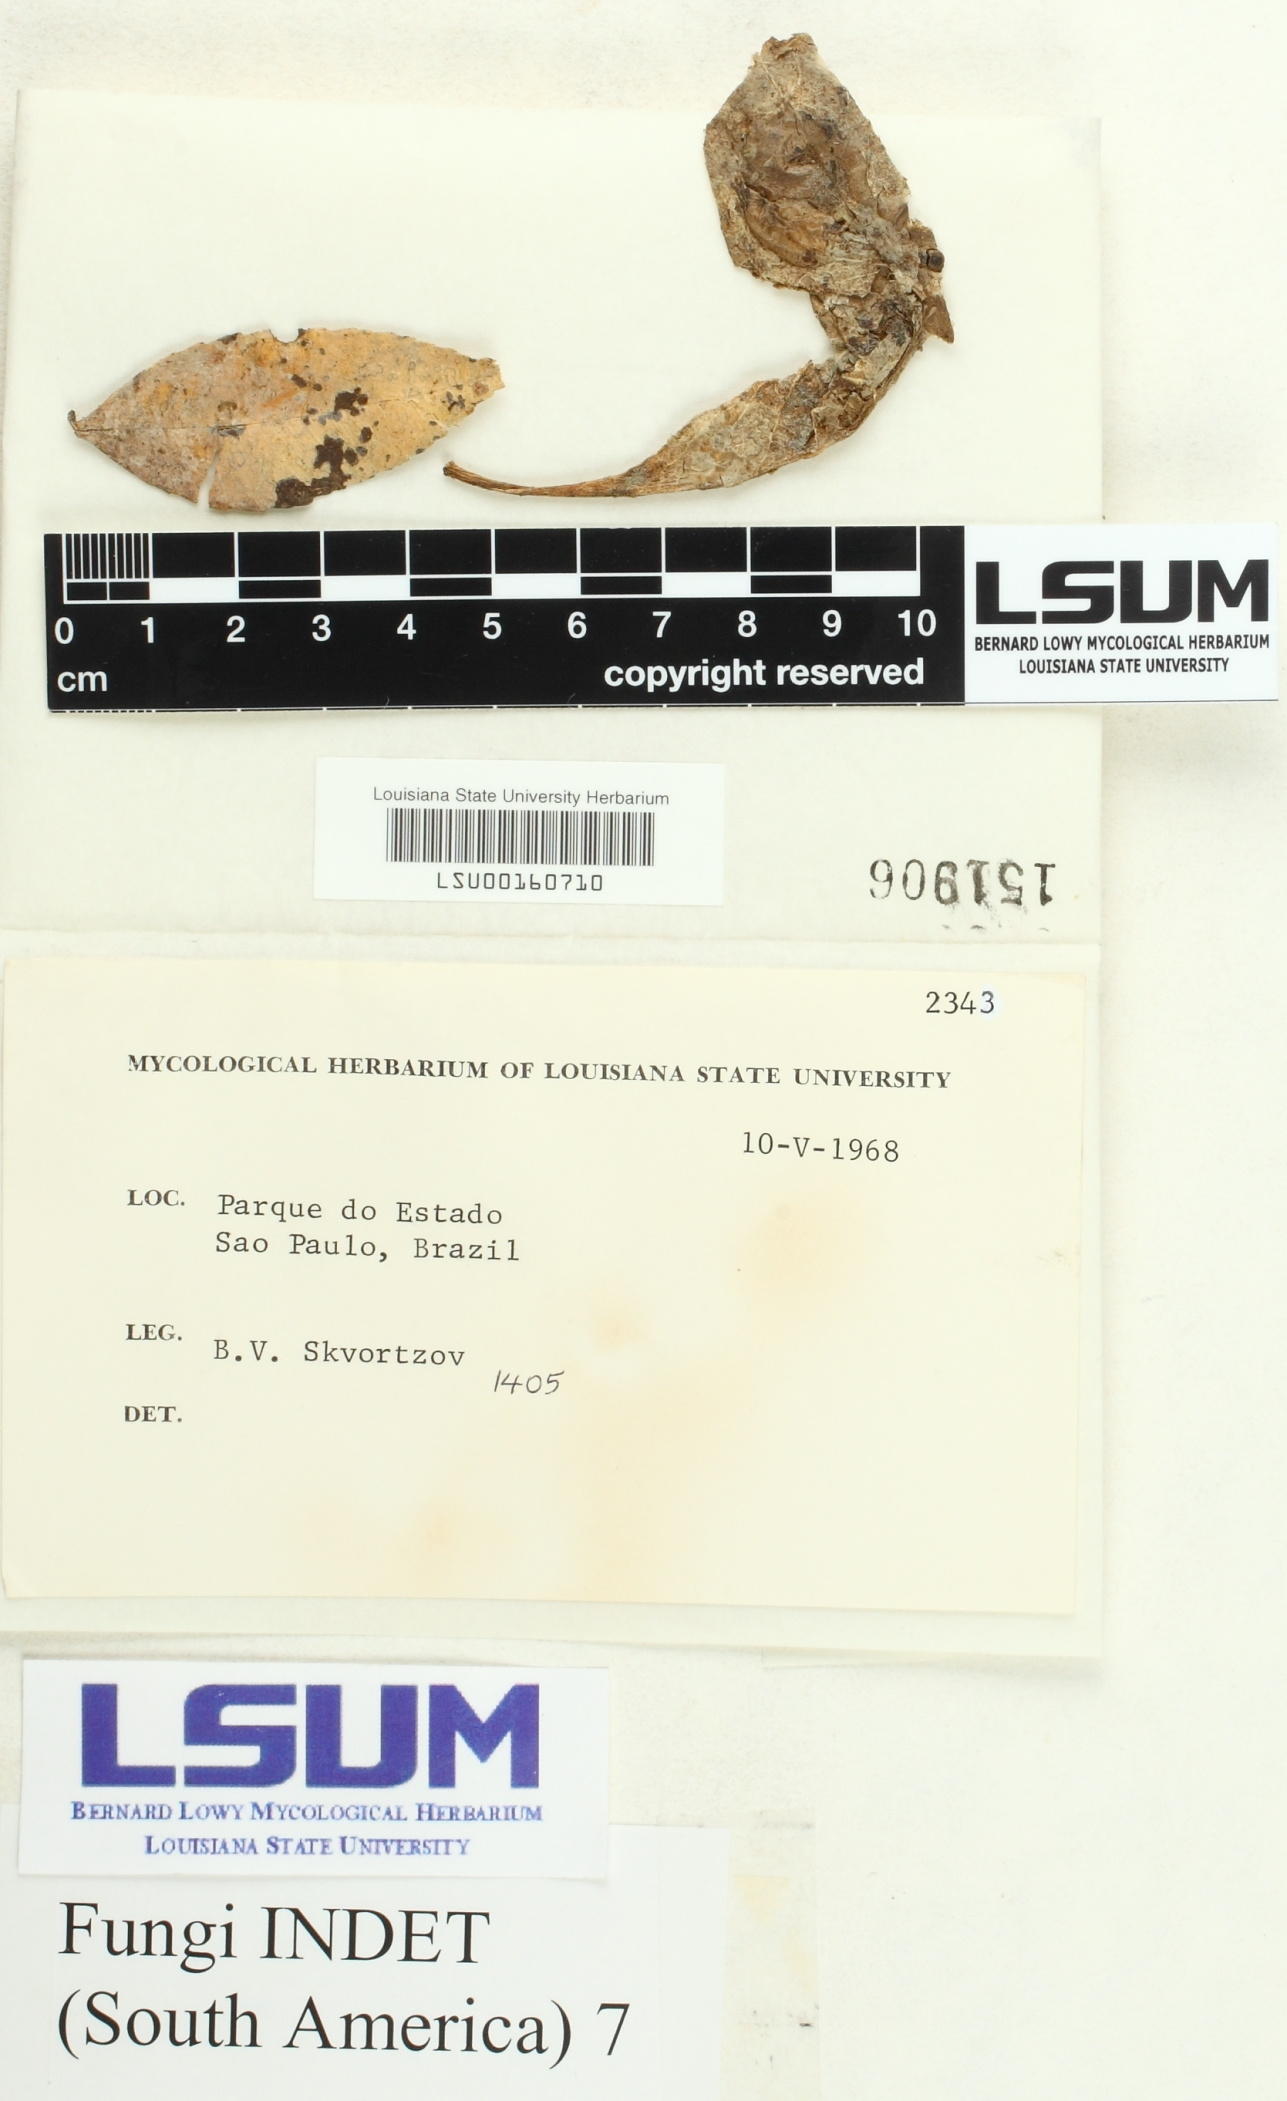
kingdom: Fungi
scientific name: Fungi
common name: Fungi
